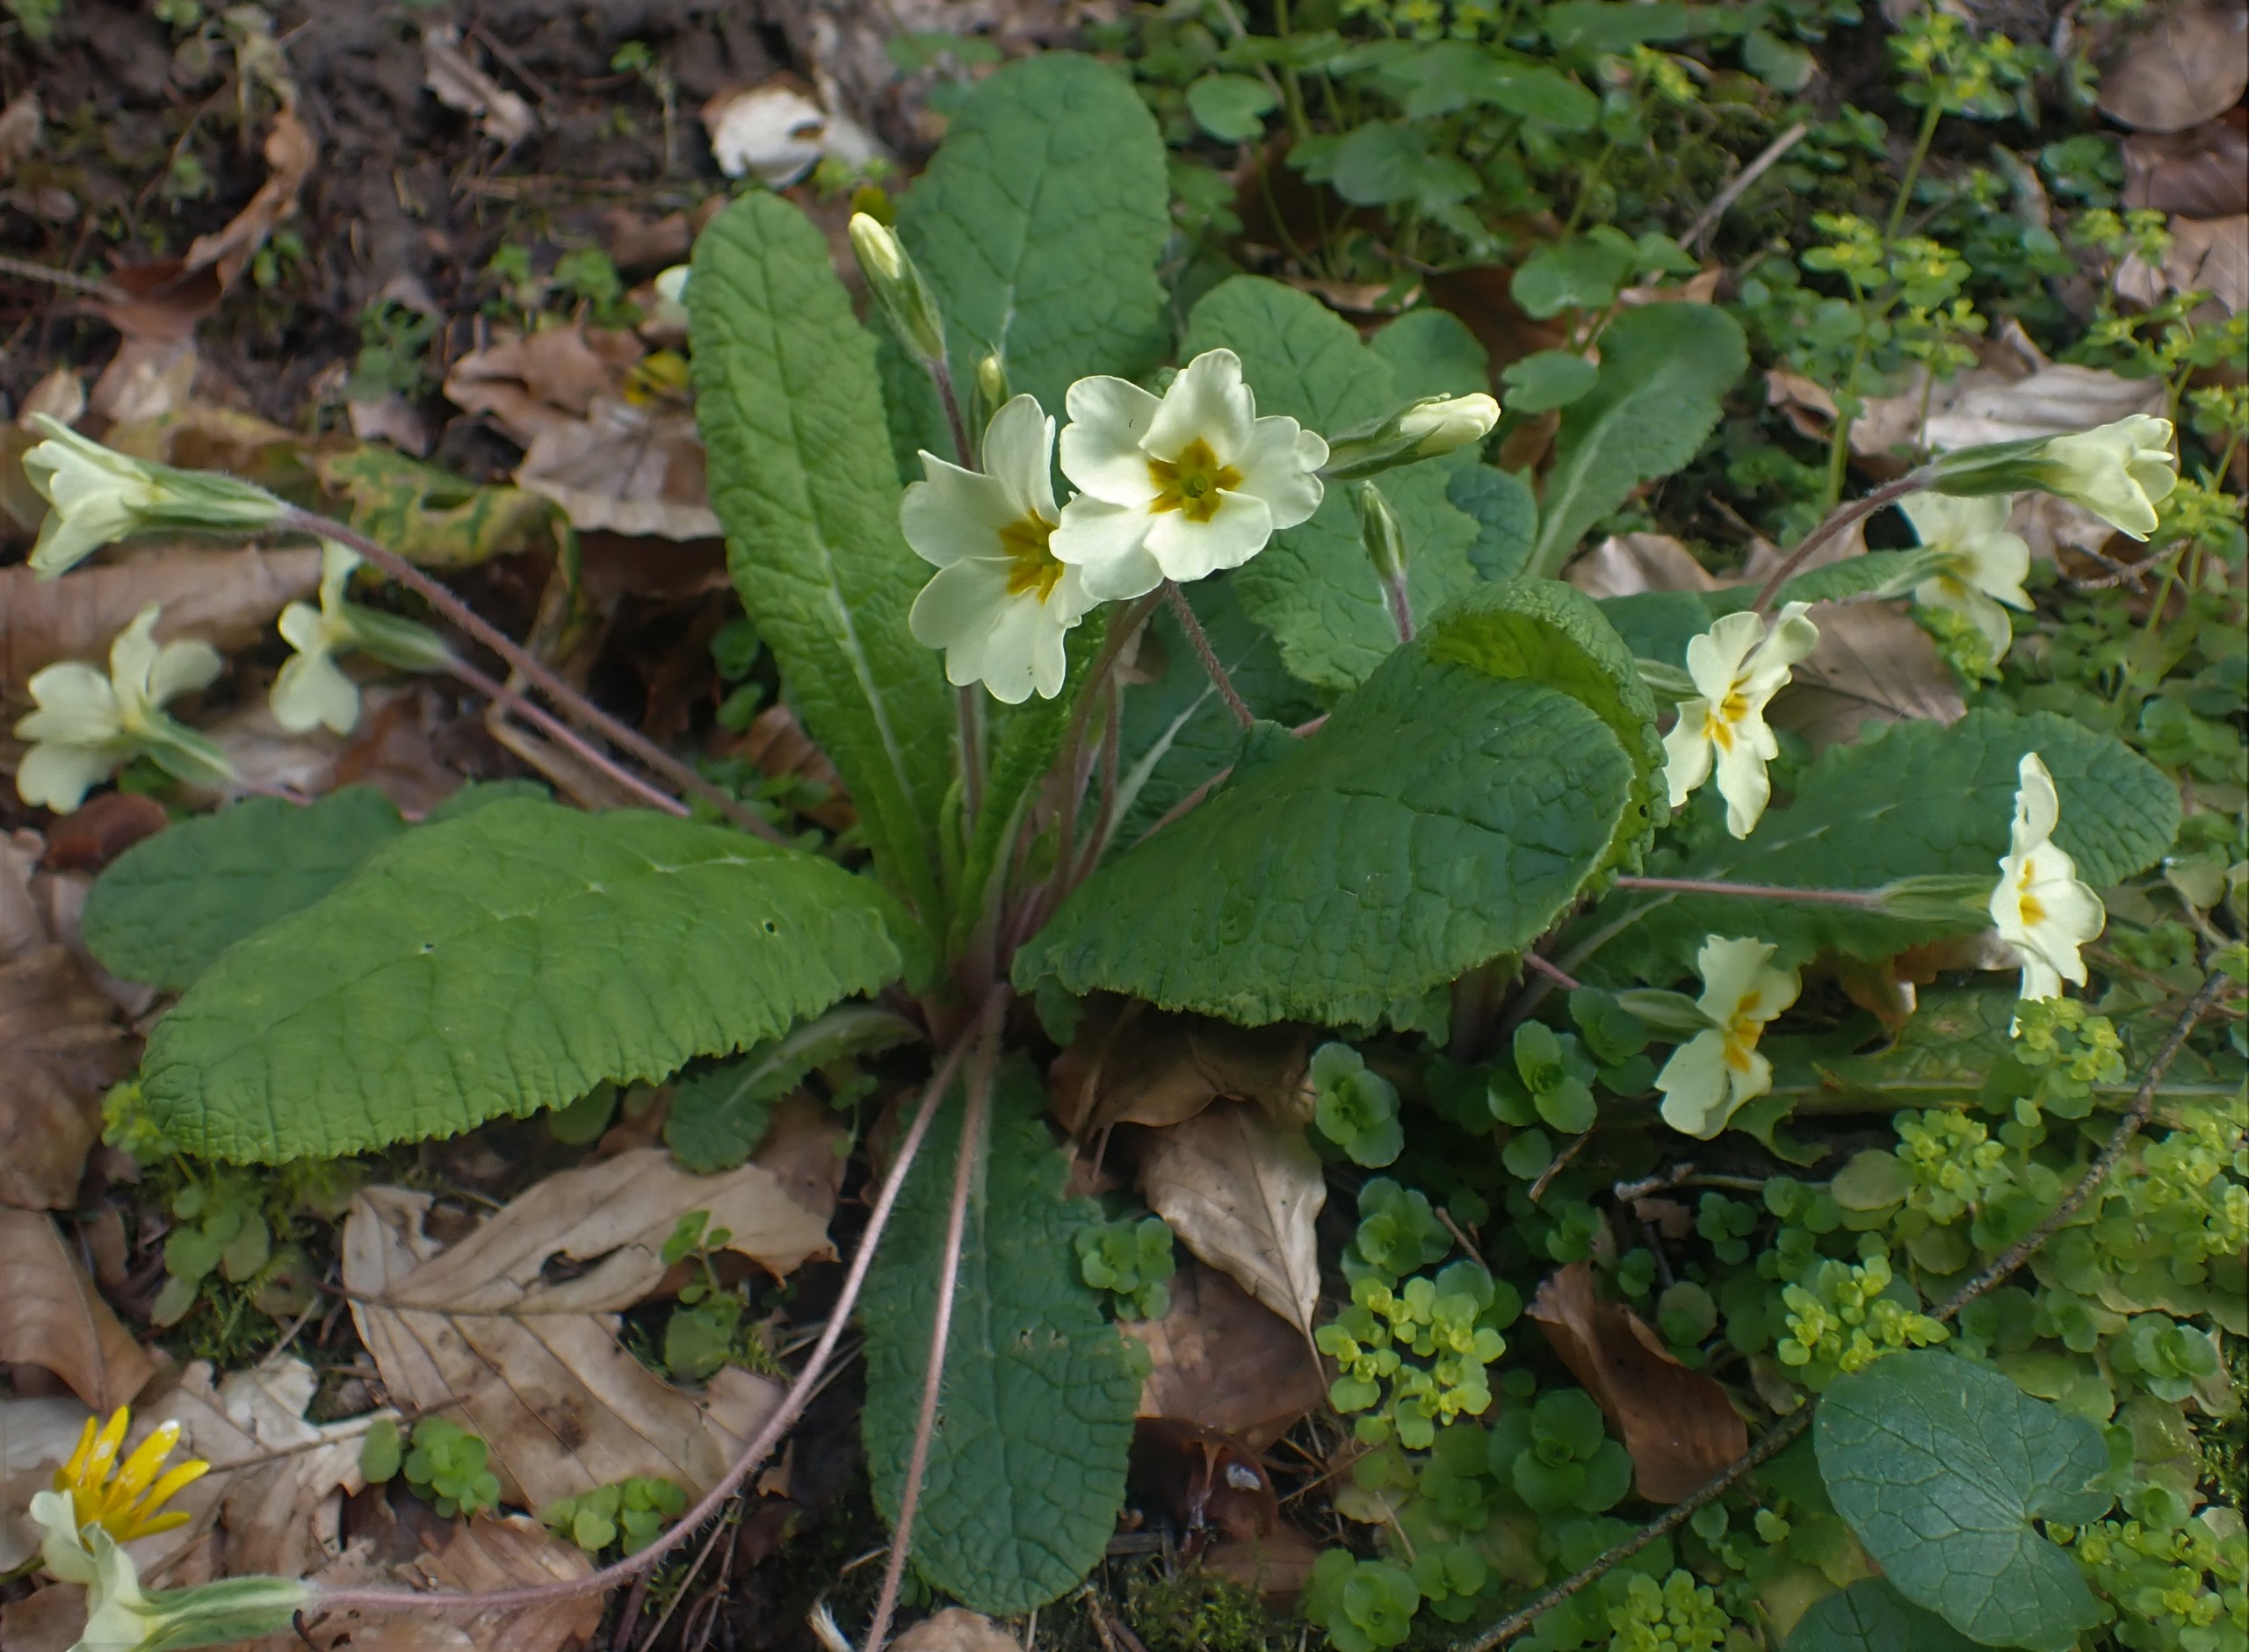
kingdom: Plantae
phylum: Tracheophyta
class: Magnoliopsida
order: Ericales
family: Primulaceae
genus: Primula
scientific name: Primula vulgaris
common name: Storblomstret kodriver
